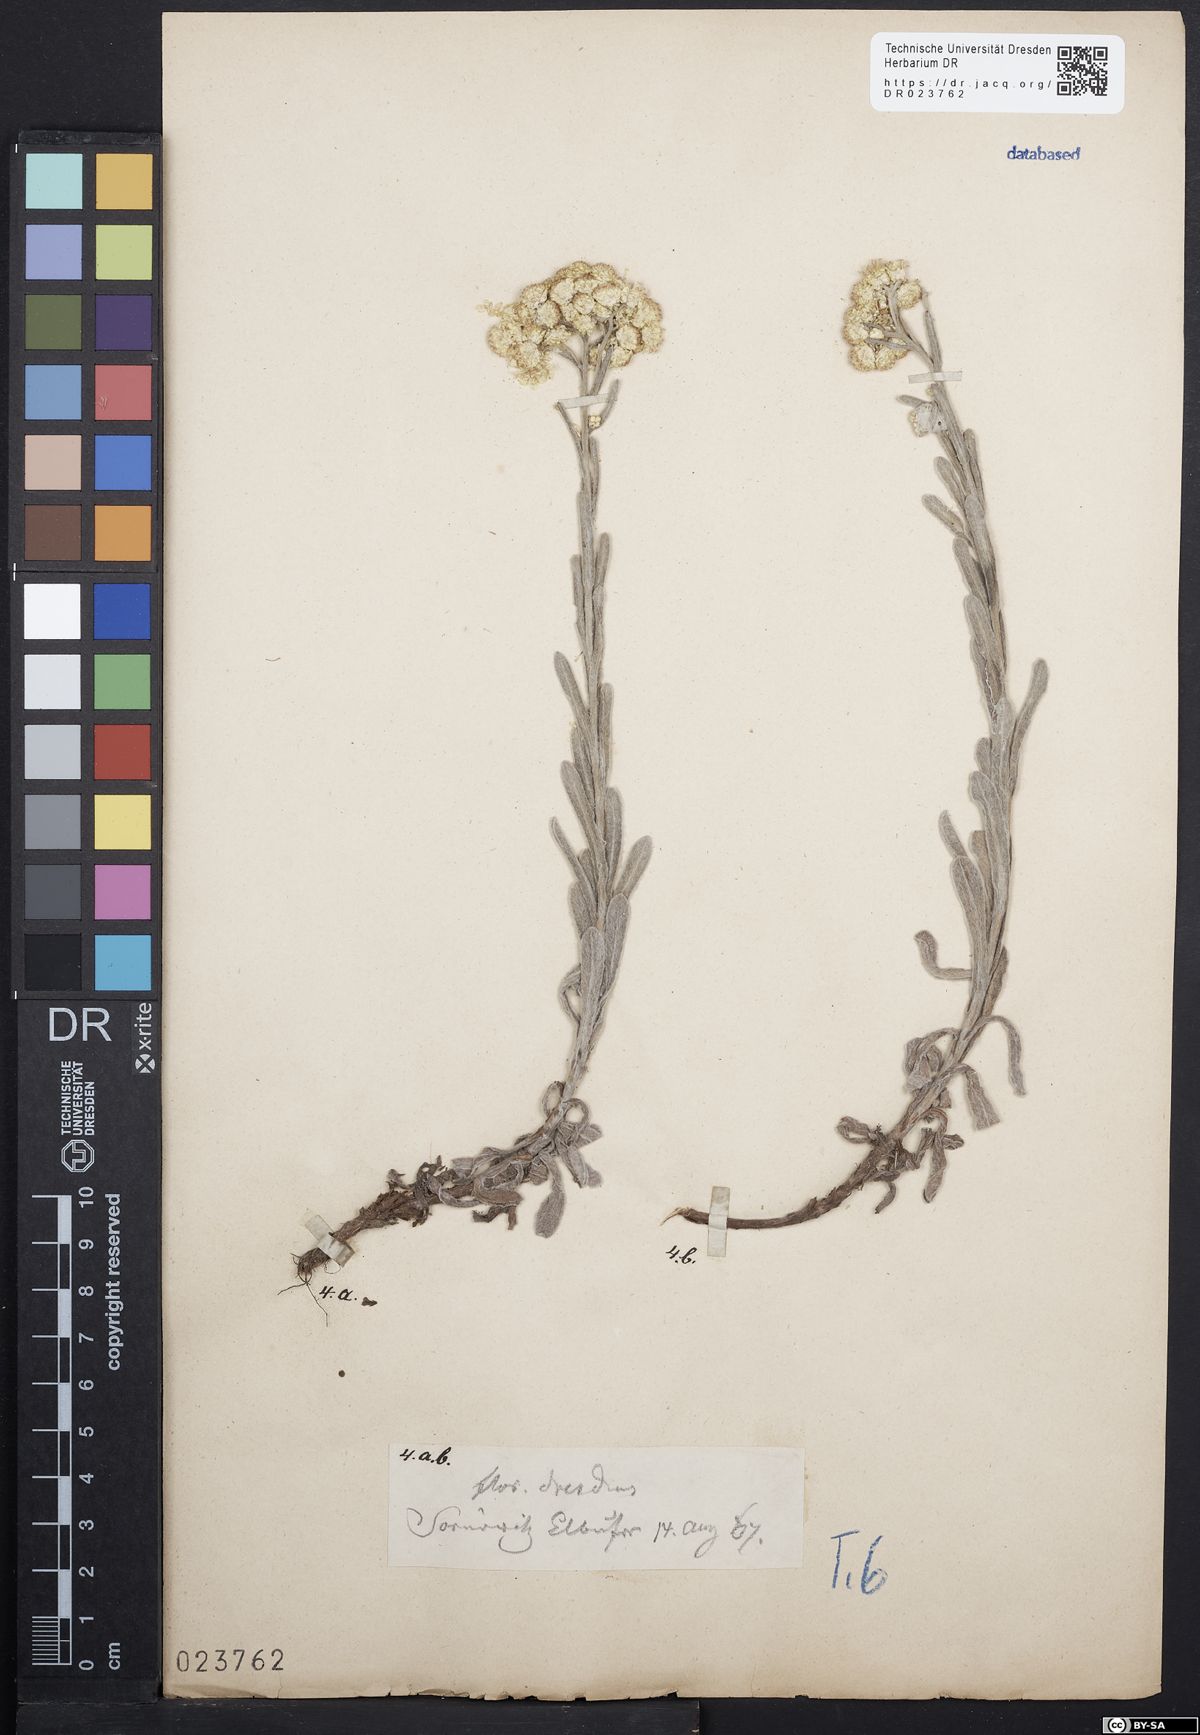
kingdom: Plantae
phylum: Tracheophyta
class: Magnoliopsida
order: Asterales
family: Asteraceae
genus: Helichrysum
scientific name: Helichrysum arenarium
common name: Strawflower
